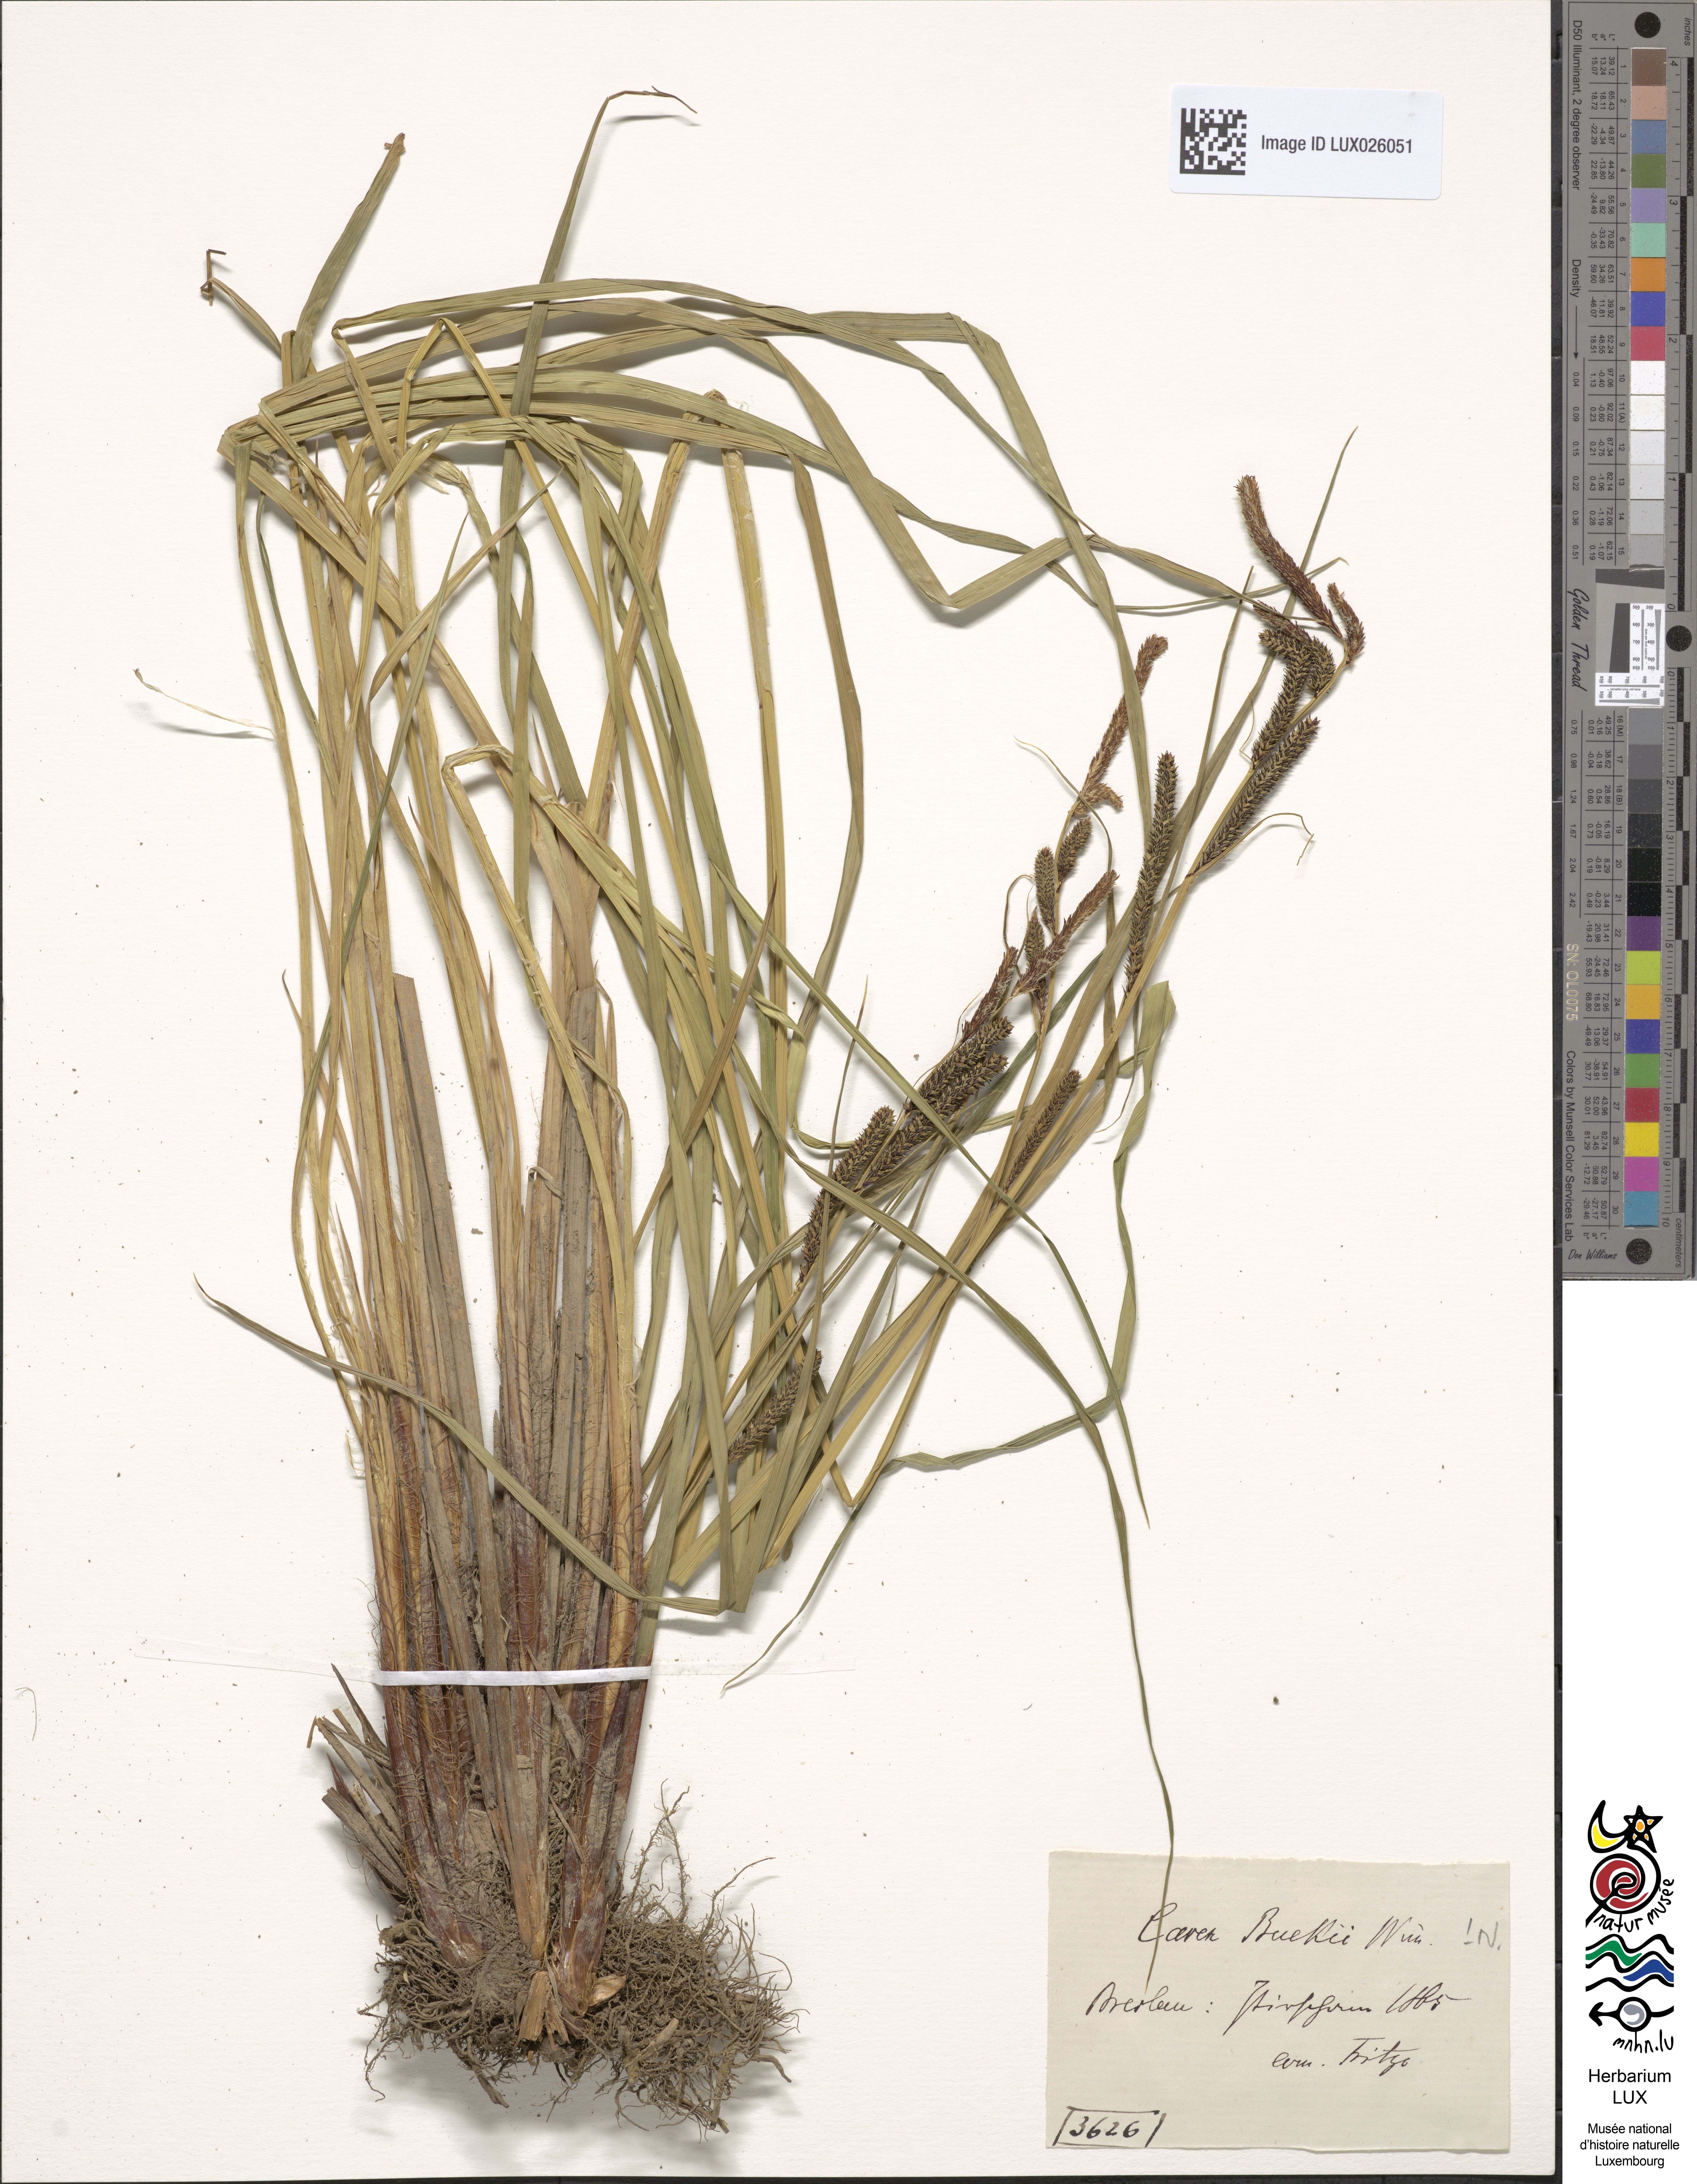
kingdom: Plantae
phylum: Tracheophyta
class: Liliopsida
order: Poales
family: Cyperaceae
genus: Carex
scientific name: Carex buekii
